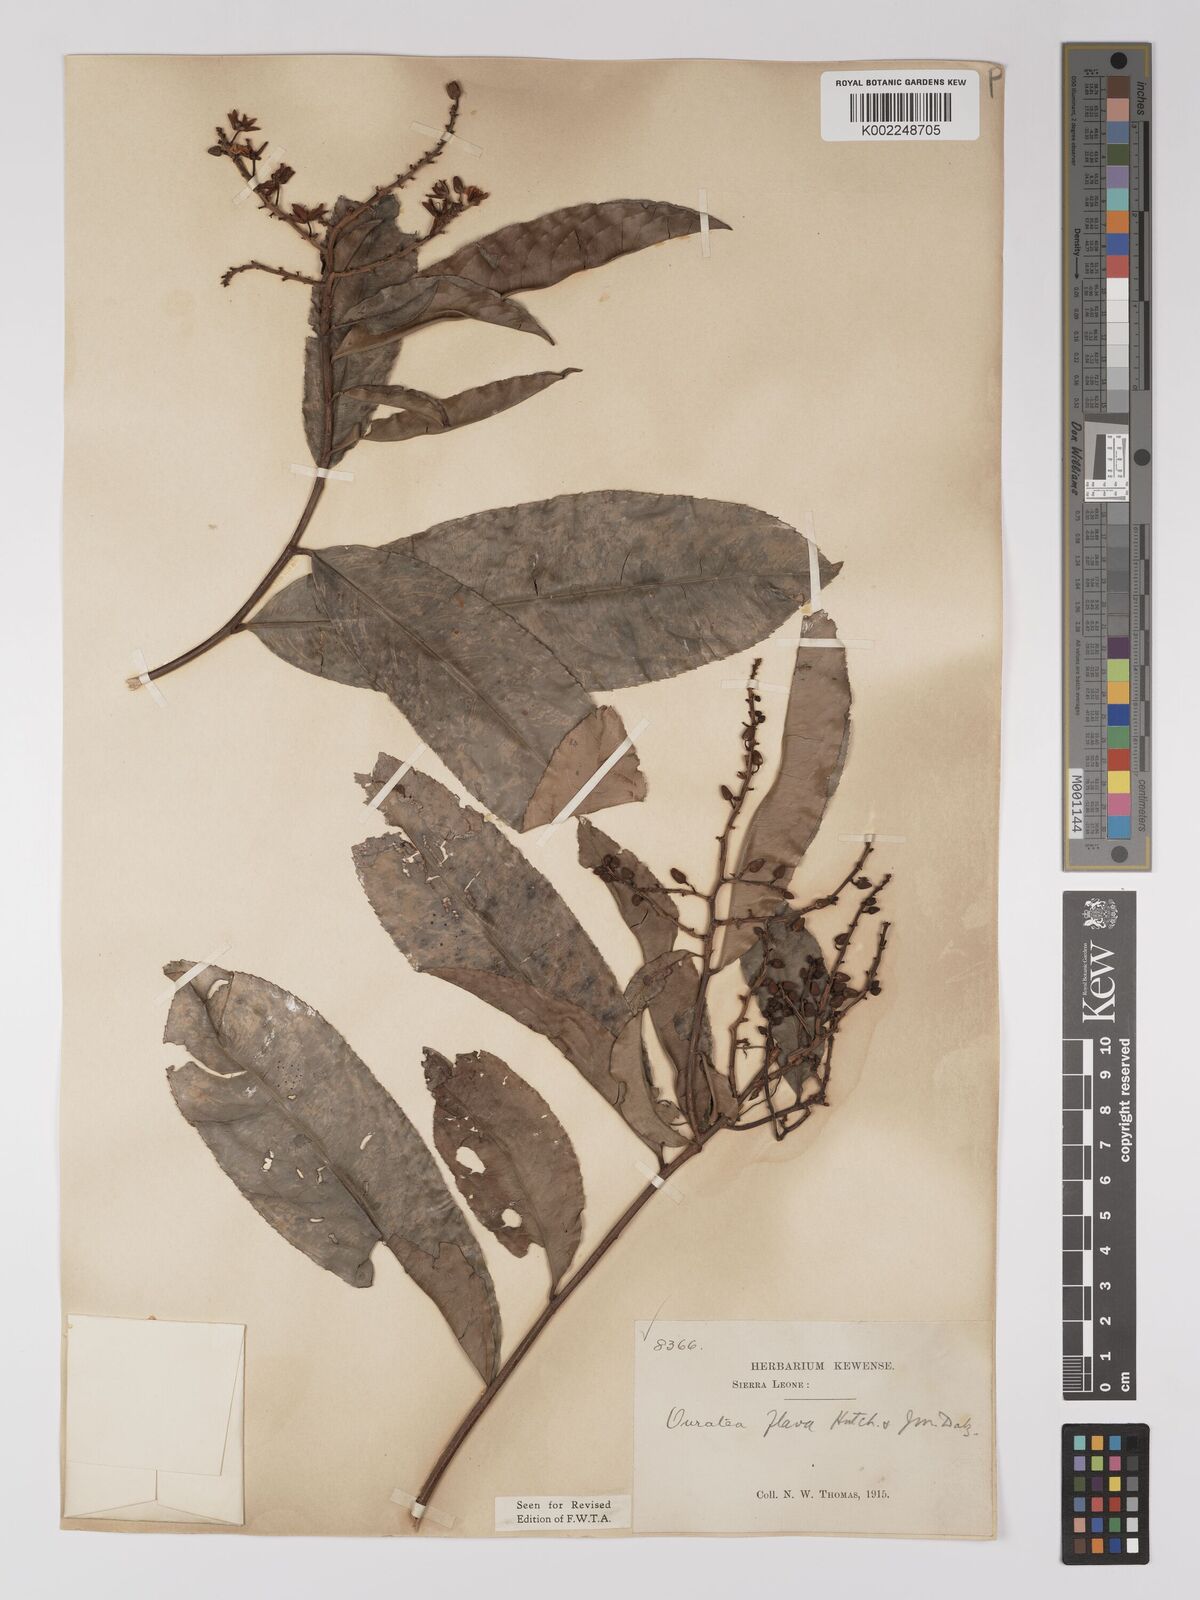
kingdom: Plantae
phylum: Tracheophyta
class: Magnoliopsida
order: Malpighiales
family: Ochnaceae
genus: Campylospermum
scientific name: Campylospermum flavum
